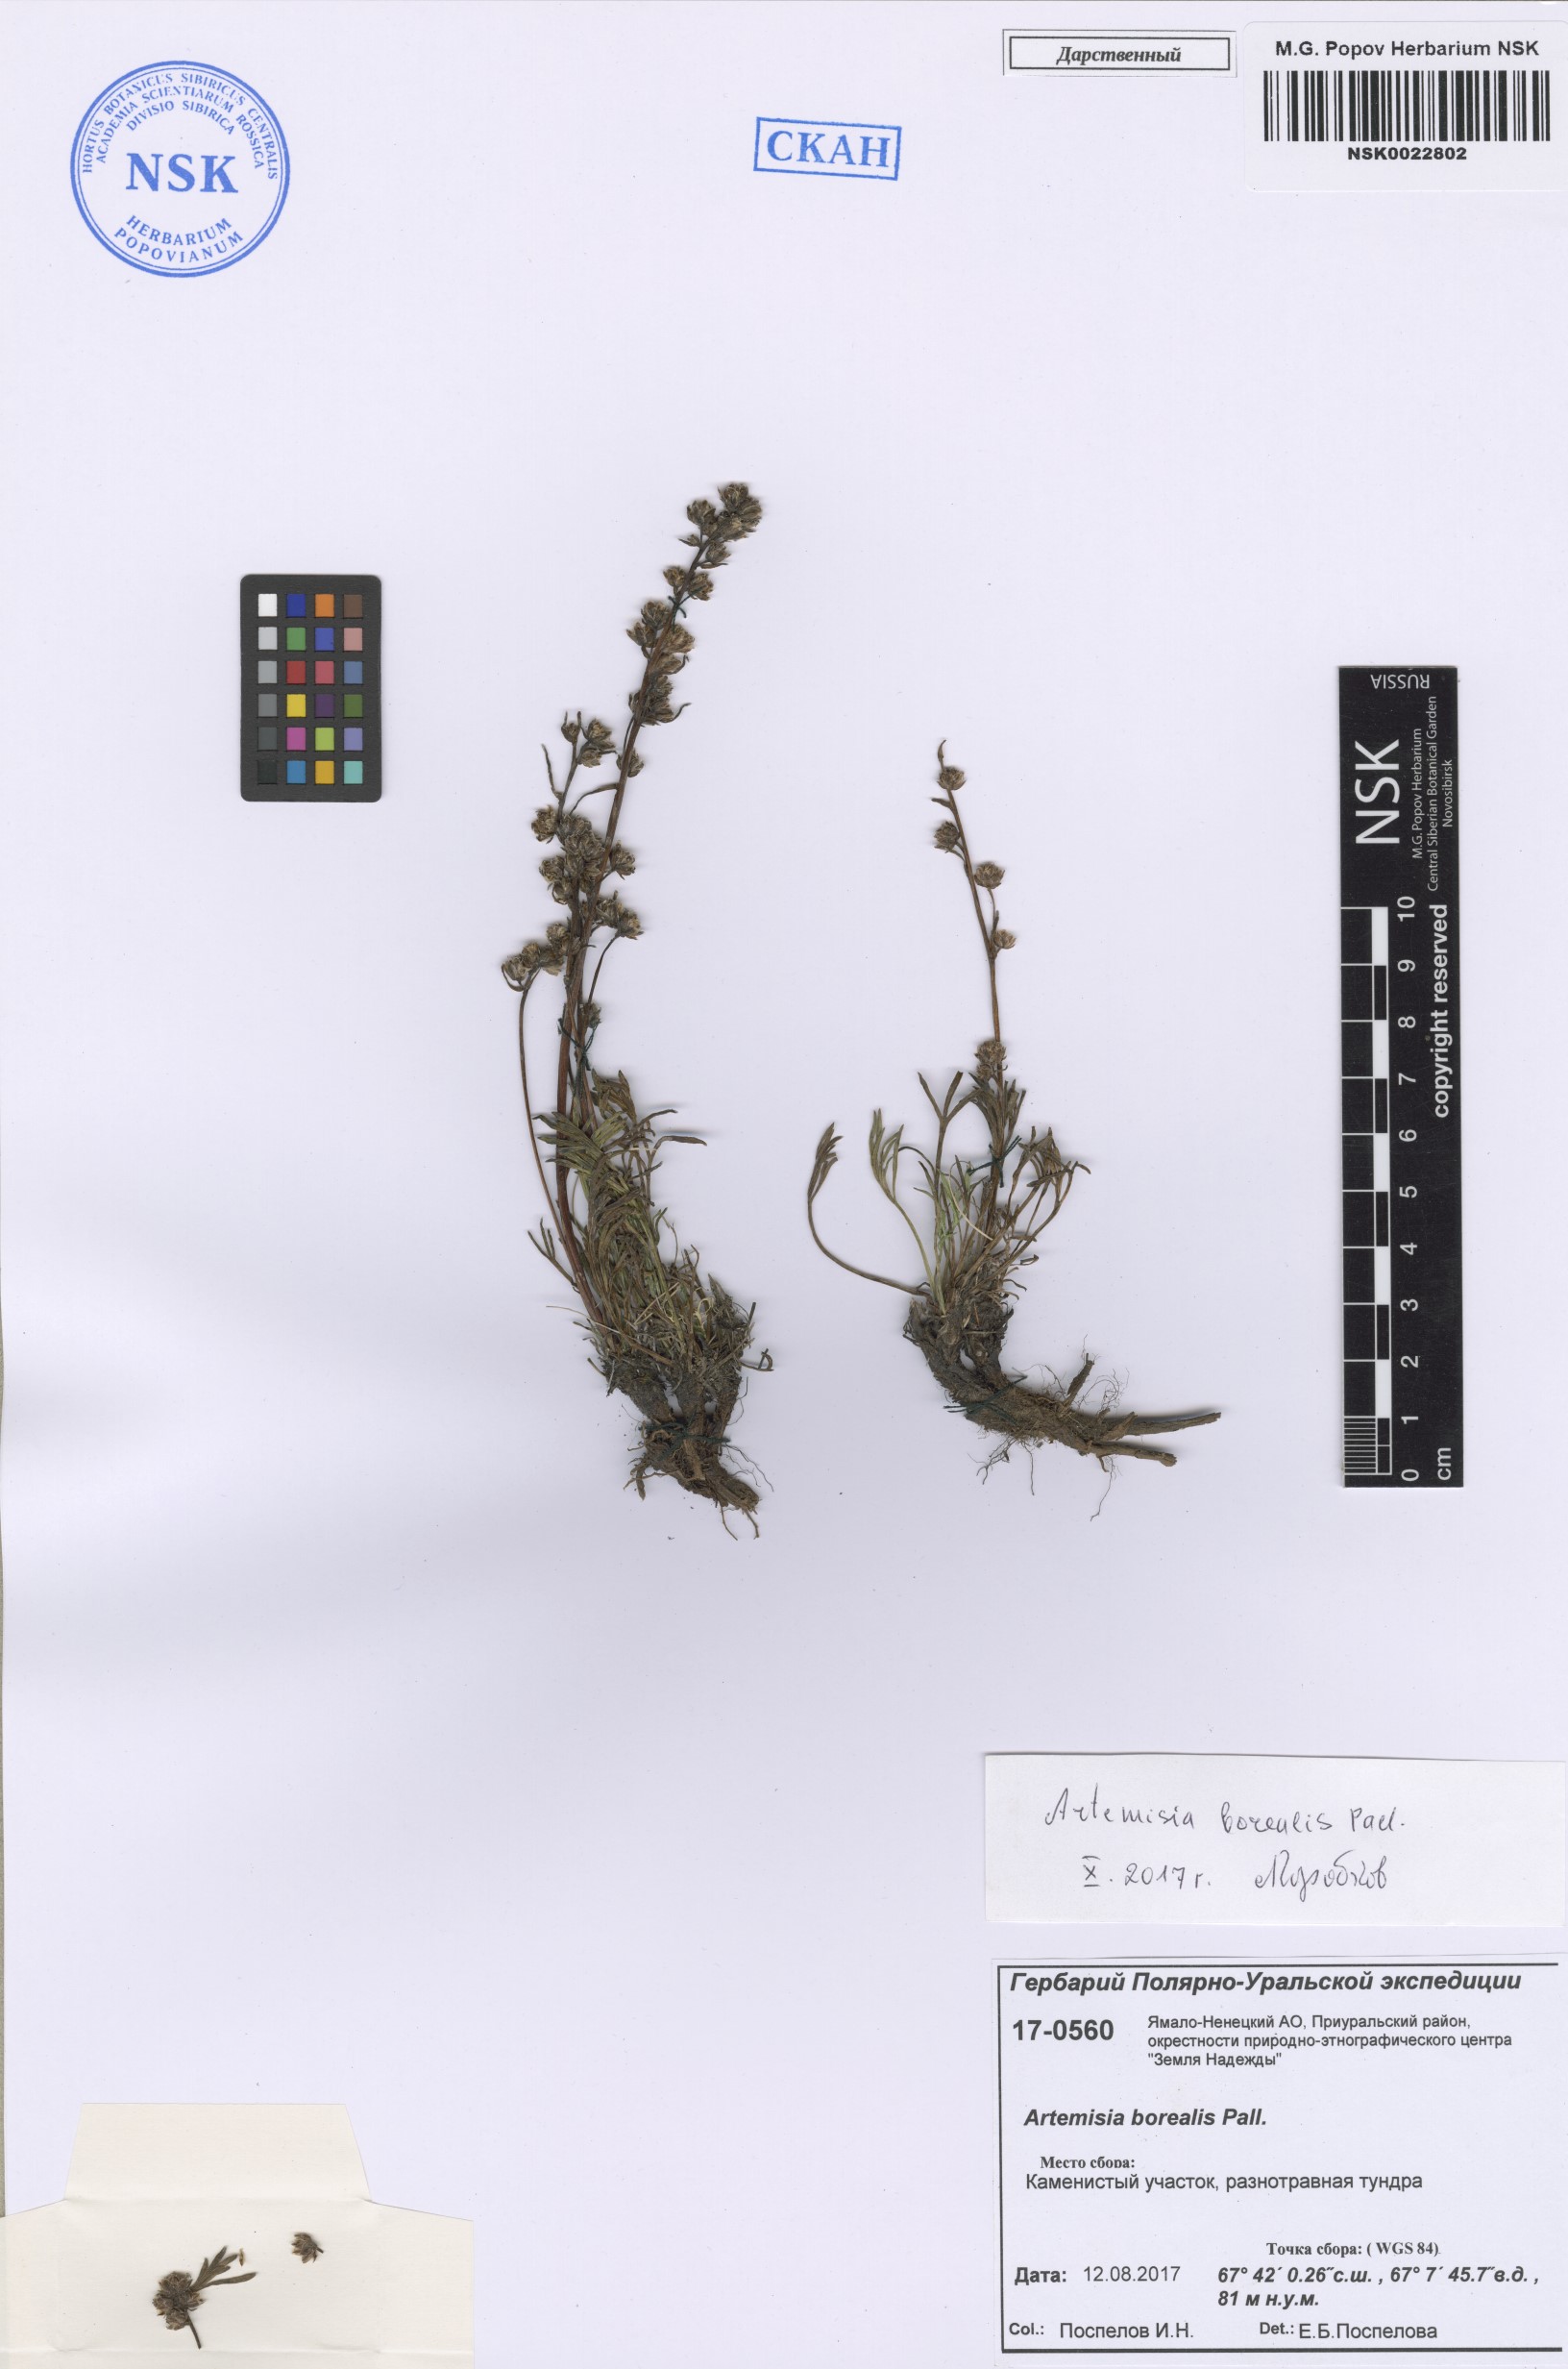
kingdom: Plantae
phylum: Tracheophyta
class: Magnoliopsida
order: Asterales
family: Asteraceae
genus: Artemisia
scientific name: Artemisia borealis
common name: Boreal sage
